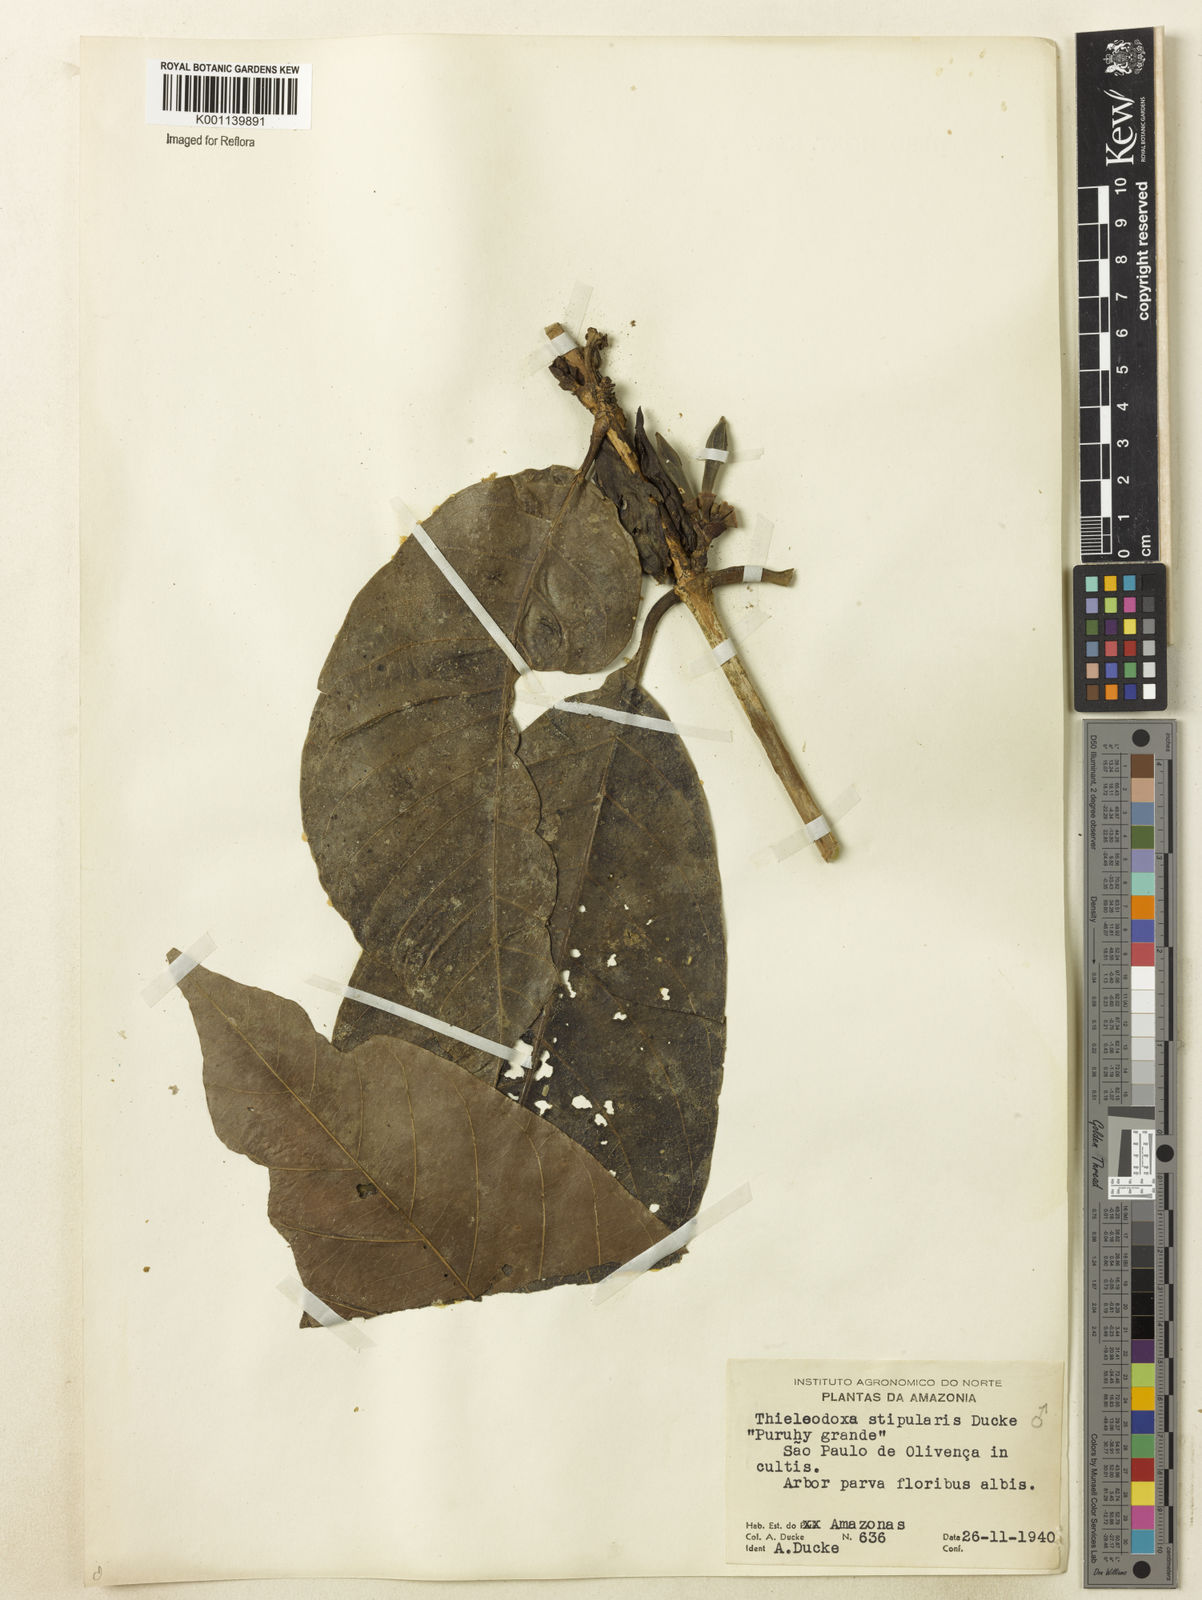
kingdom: Plantae
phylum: Tracheophyta
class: Magnoliopsida
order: Gentianales
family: Rubiaceae
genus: Alibertia
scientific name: Alibertia verticillata
